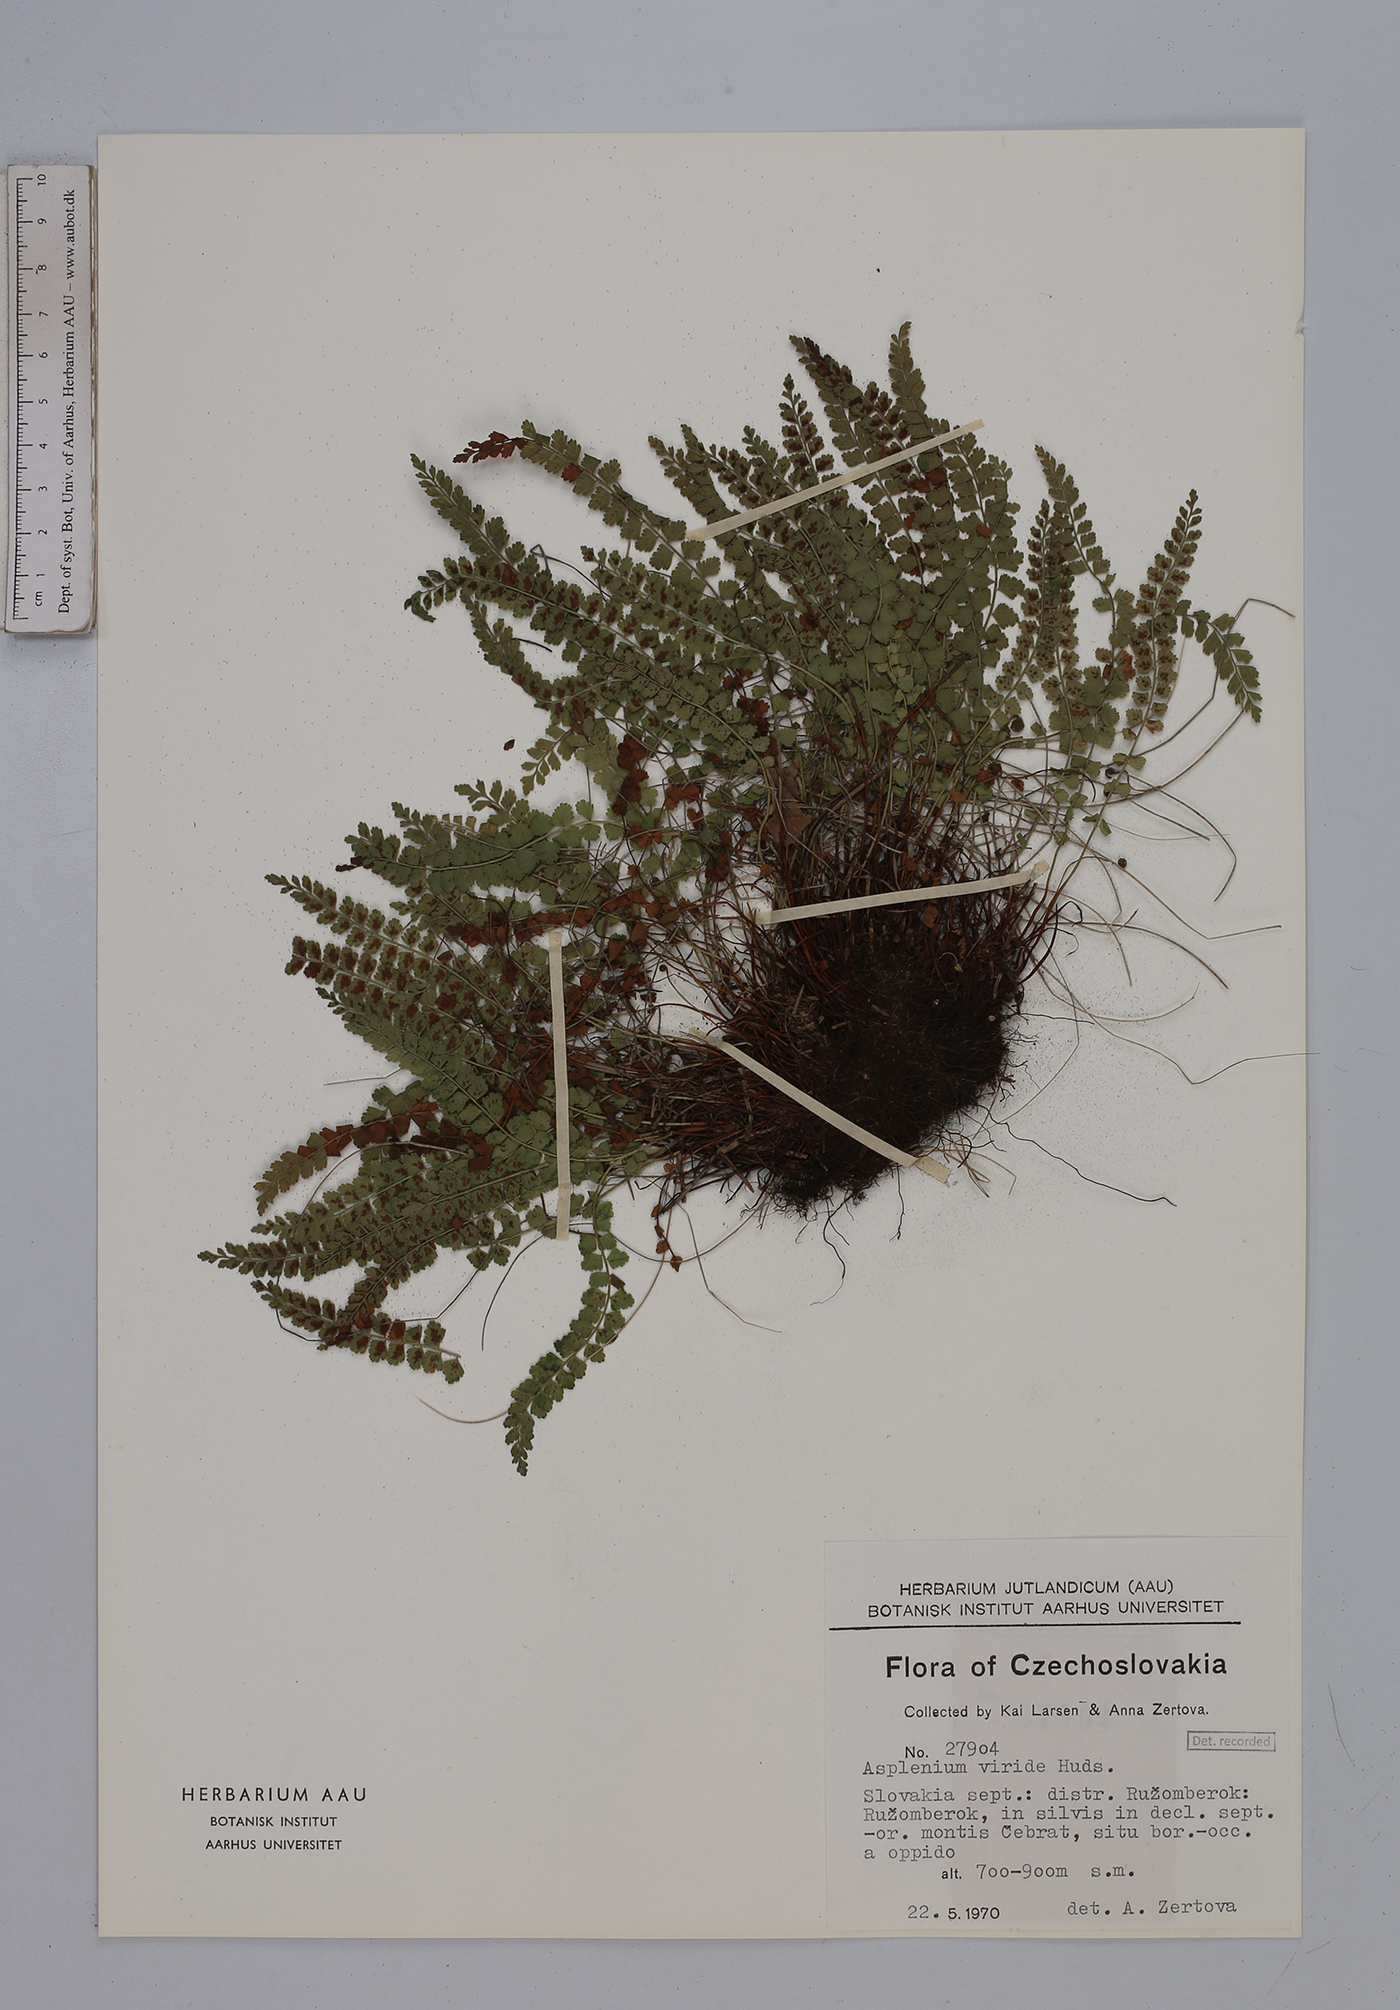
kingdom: Plantae
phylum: Tracheophyta
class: Polypodiopsida
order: Polypodiales
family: Aspleniaceae
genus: Asplenium
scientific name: Asplenium viride
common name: Green spleenwort
